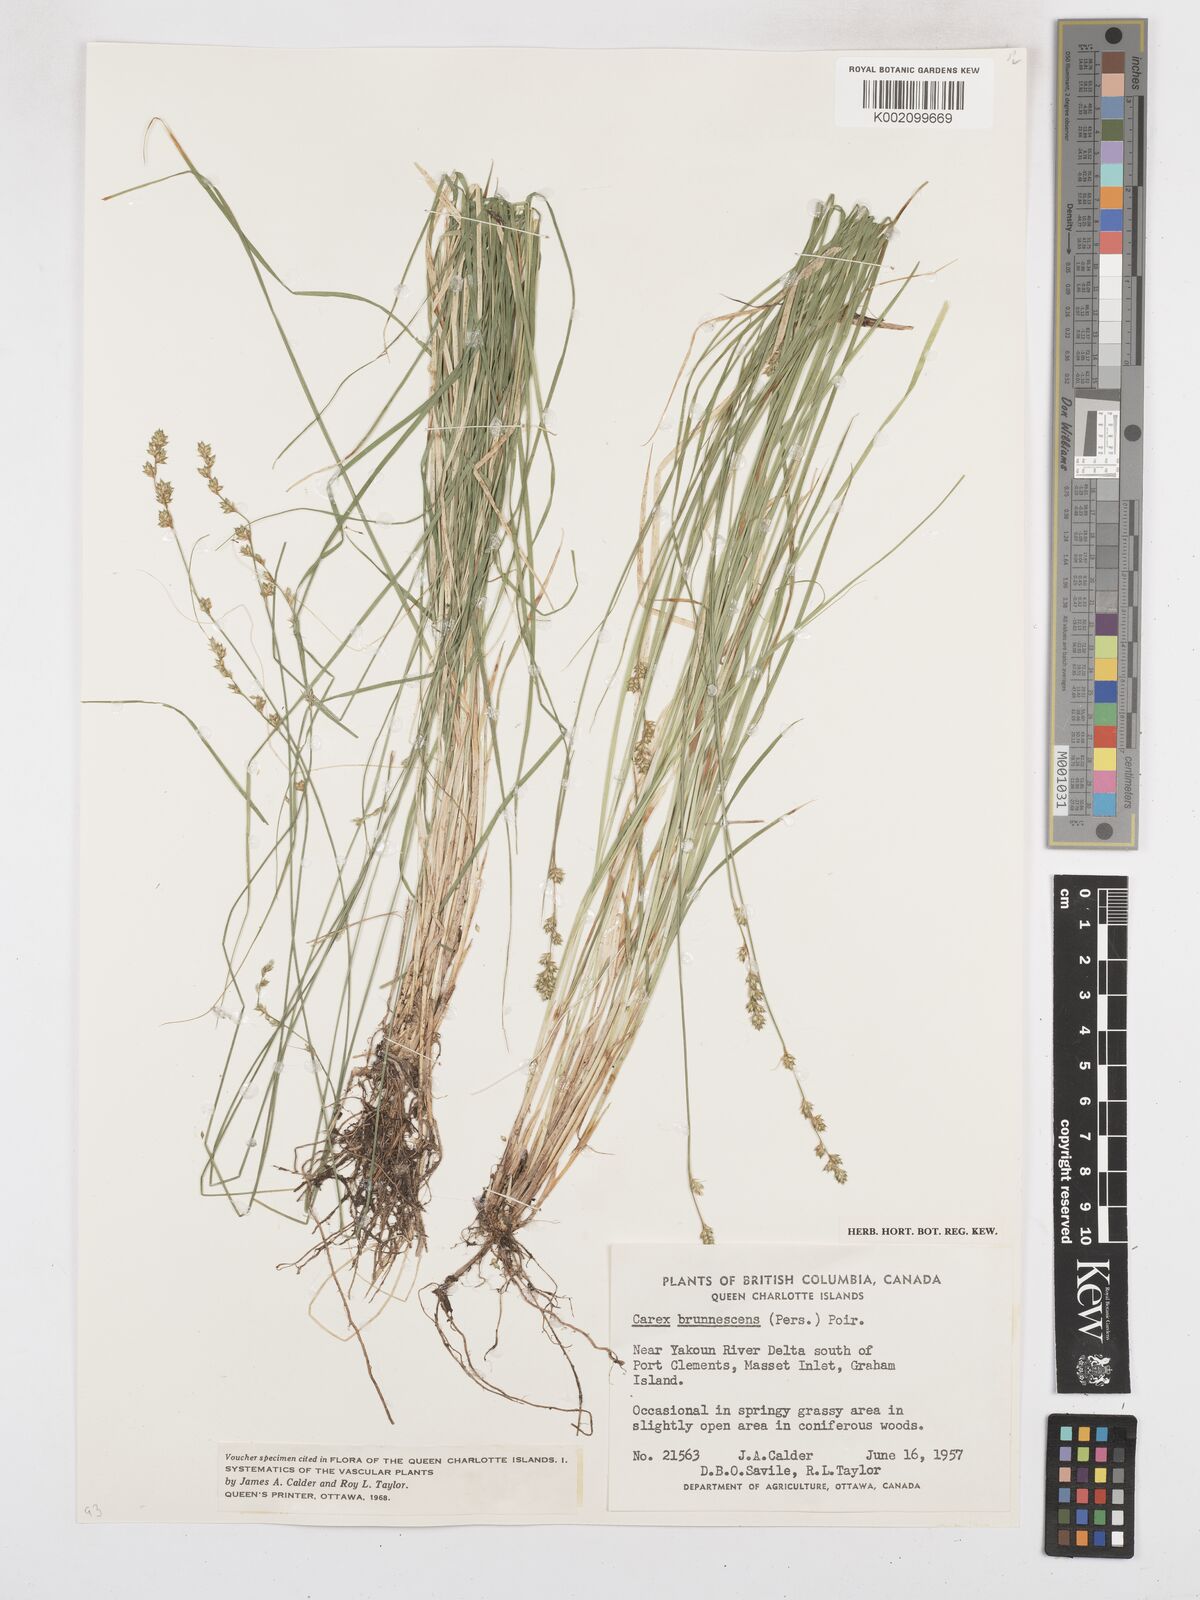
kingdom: Plantae
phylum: Tracheophyta
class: Liliopsida
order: Poales
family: Cyperaceae
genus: Carex
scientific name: Carex brunnescens
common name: Brown sedge
